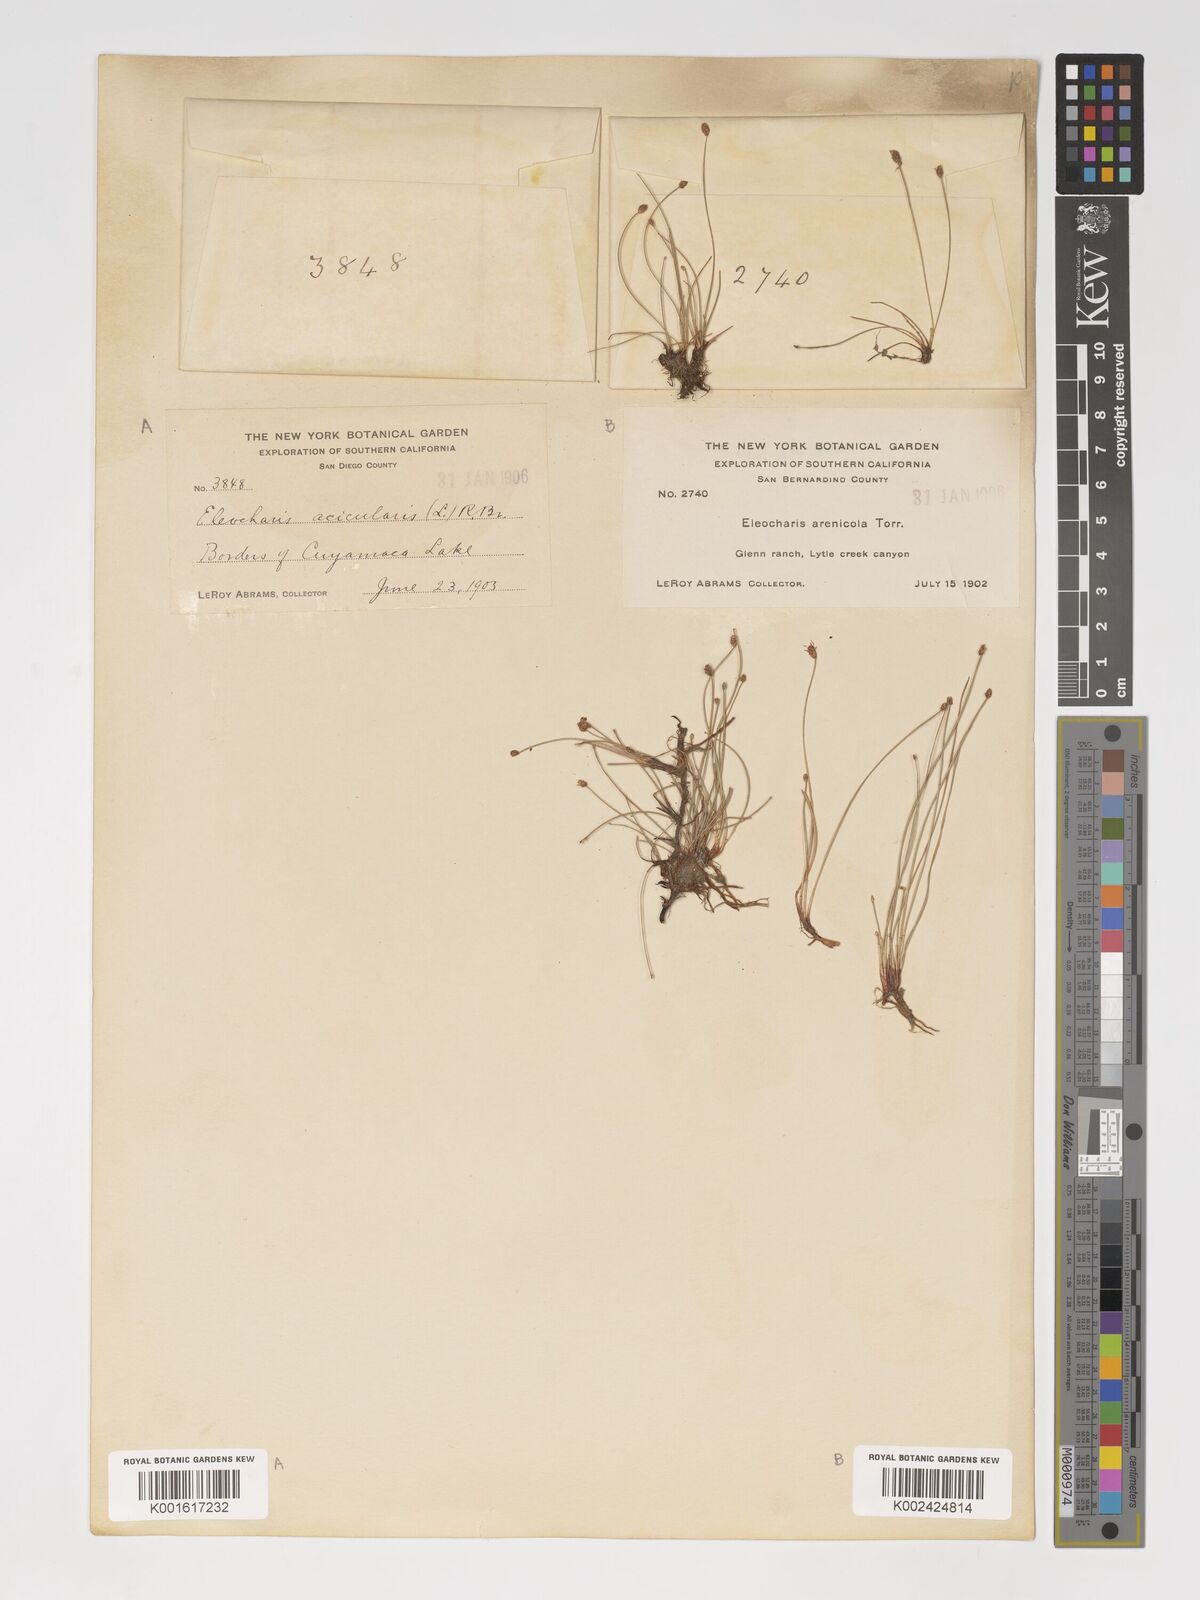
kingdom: Plantae
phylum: Tracheophyta
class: Liliopsida
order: Poales
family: Cyperaceae
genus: Eleocharis
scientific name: Eleocharis montevidensis
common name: Sand spike-rush
